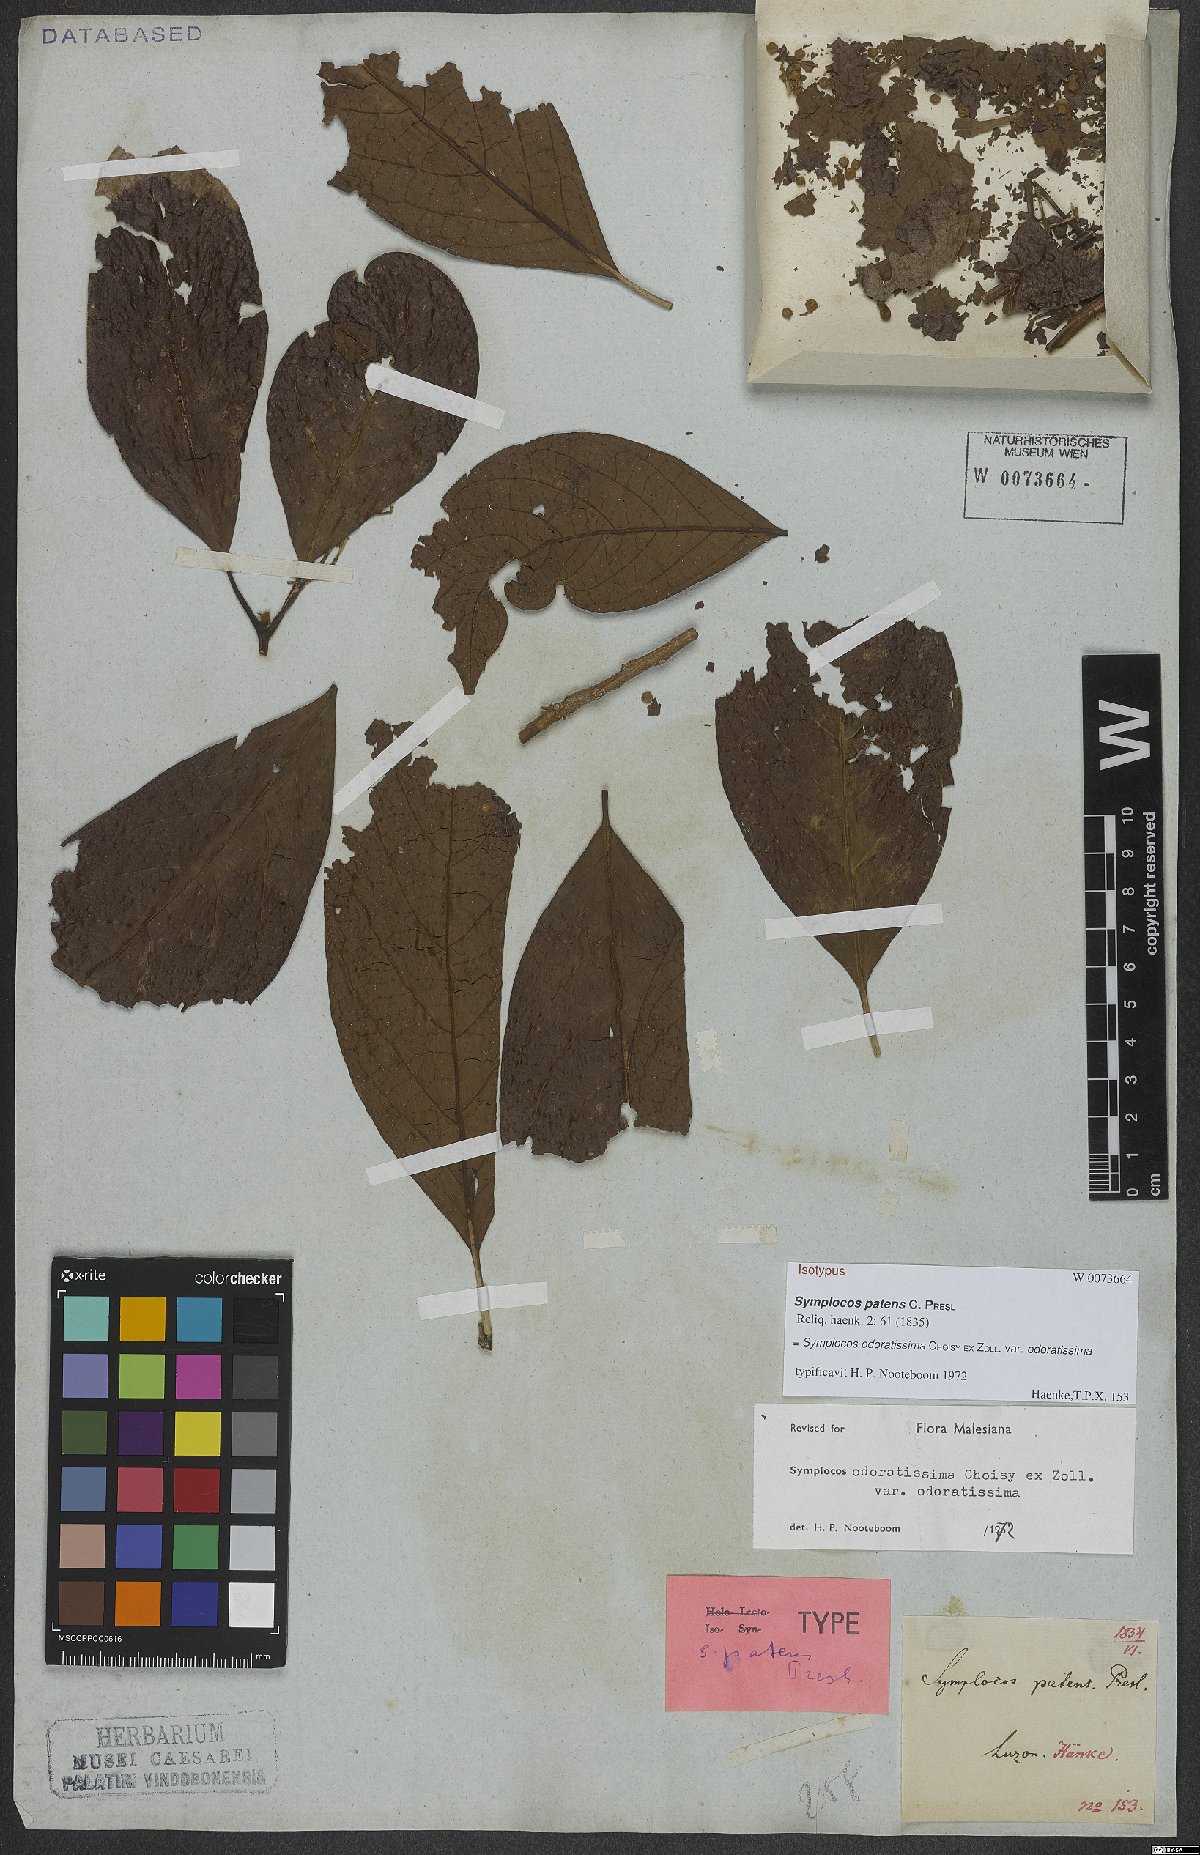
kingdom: Plantae
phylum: Tracheophyta
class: Magnoliopsida
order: Ericales
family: Symplocaceae
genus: Symplocos
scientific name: Symplocos odoratissima
